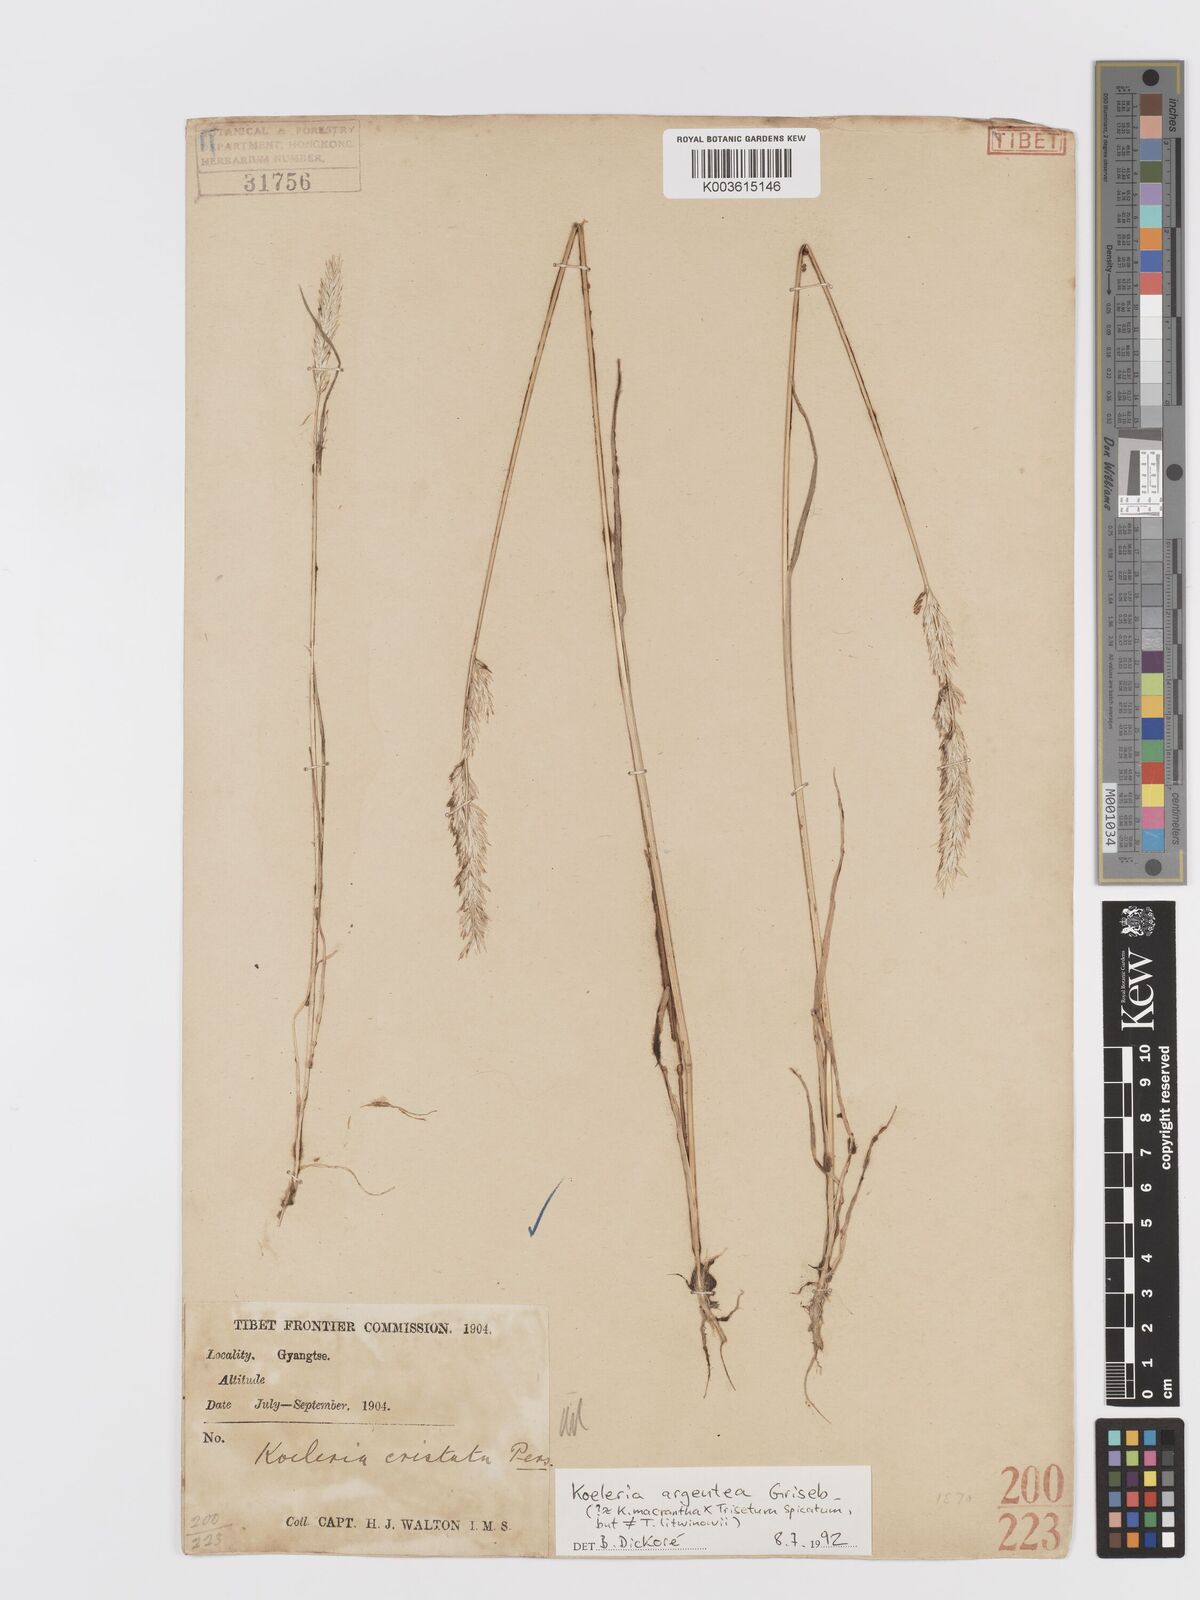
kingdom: Plantae
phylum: Tracheophyta
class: Liliopsida
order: Poales
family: Poaceae
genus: Koeleria
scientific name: Koeleria argentea
